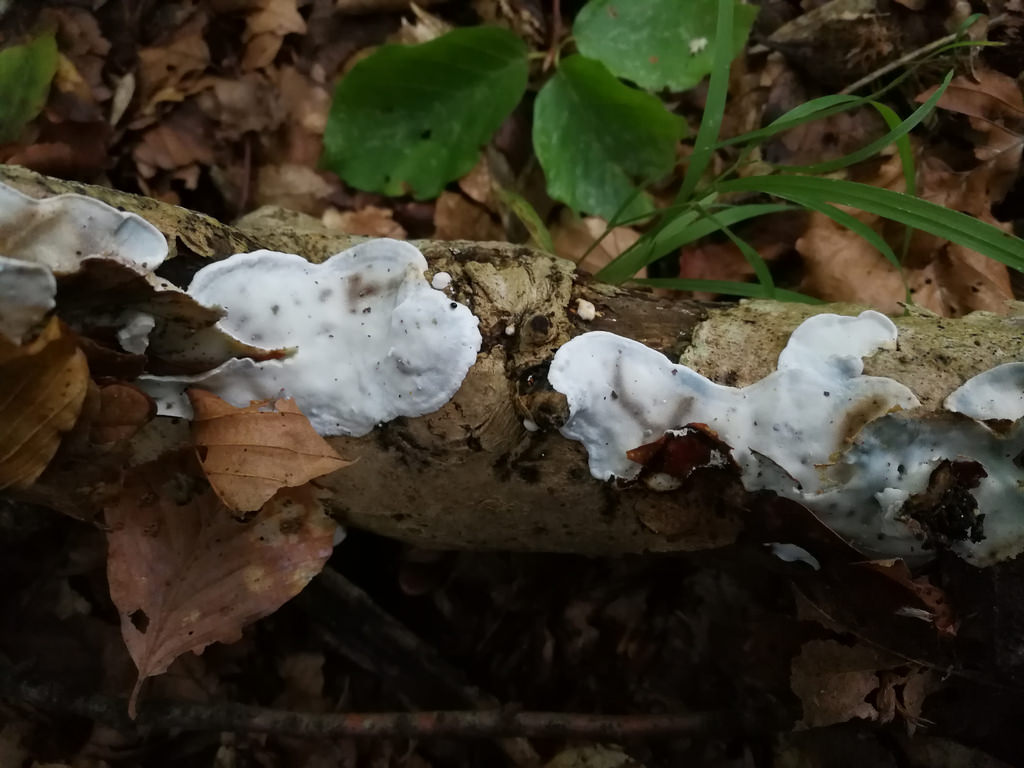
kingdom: Fungi
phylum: Basidiomycota
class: Agaricomycetes
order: Polyporales
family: Incrustoporiaceae
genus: Skeletocutis
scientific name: Skeletocutis nemoralis
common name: stor krystalporesvamp
